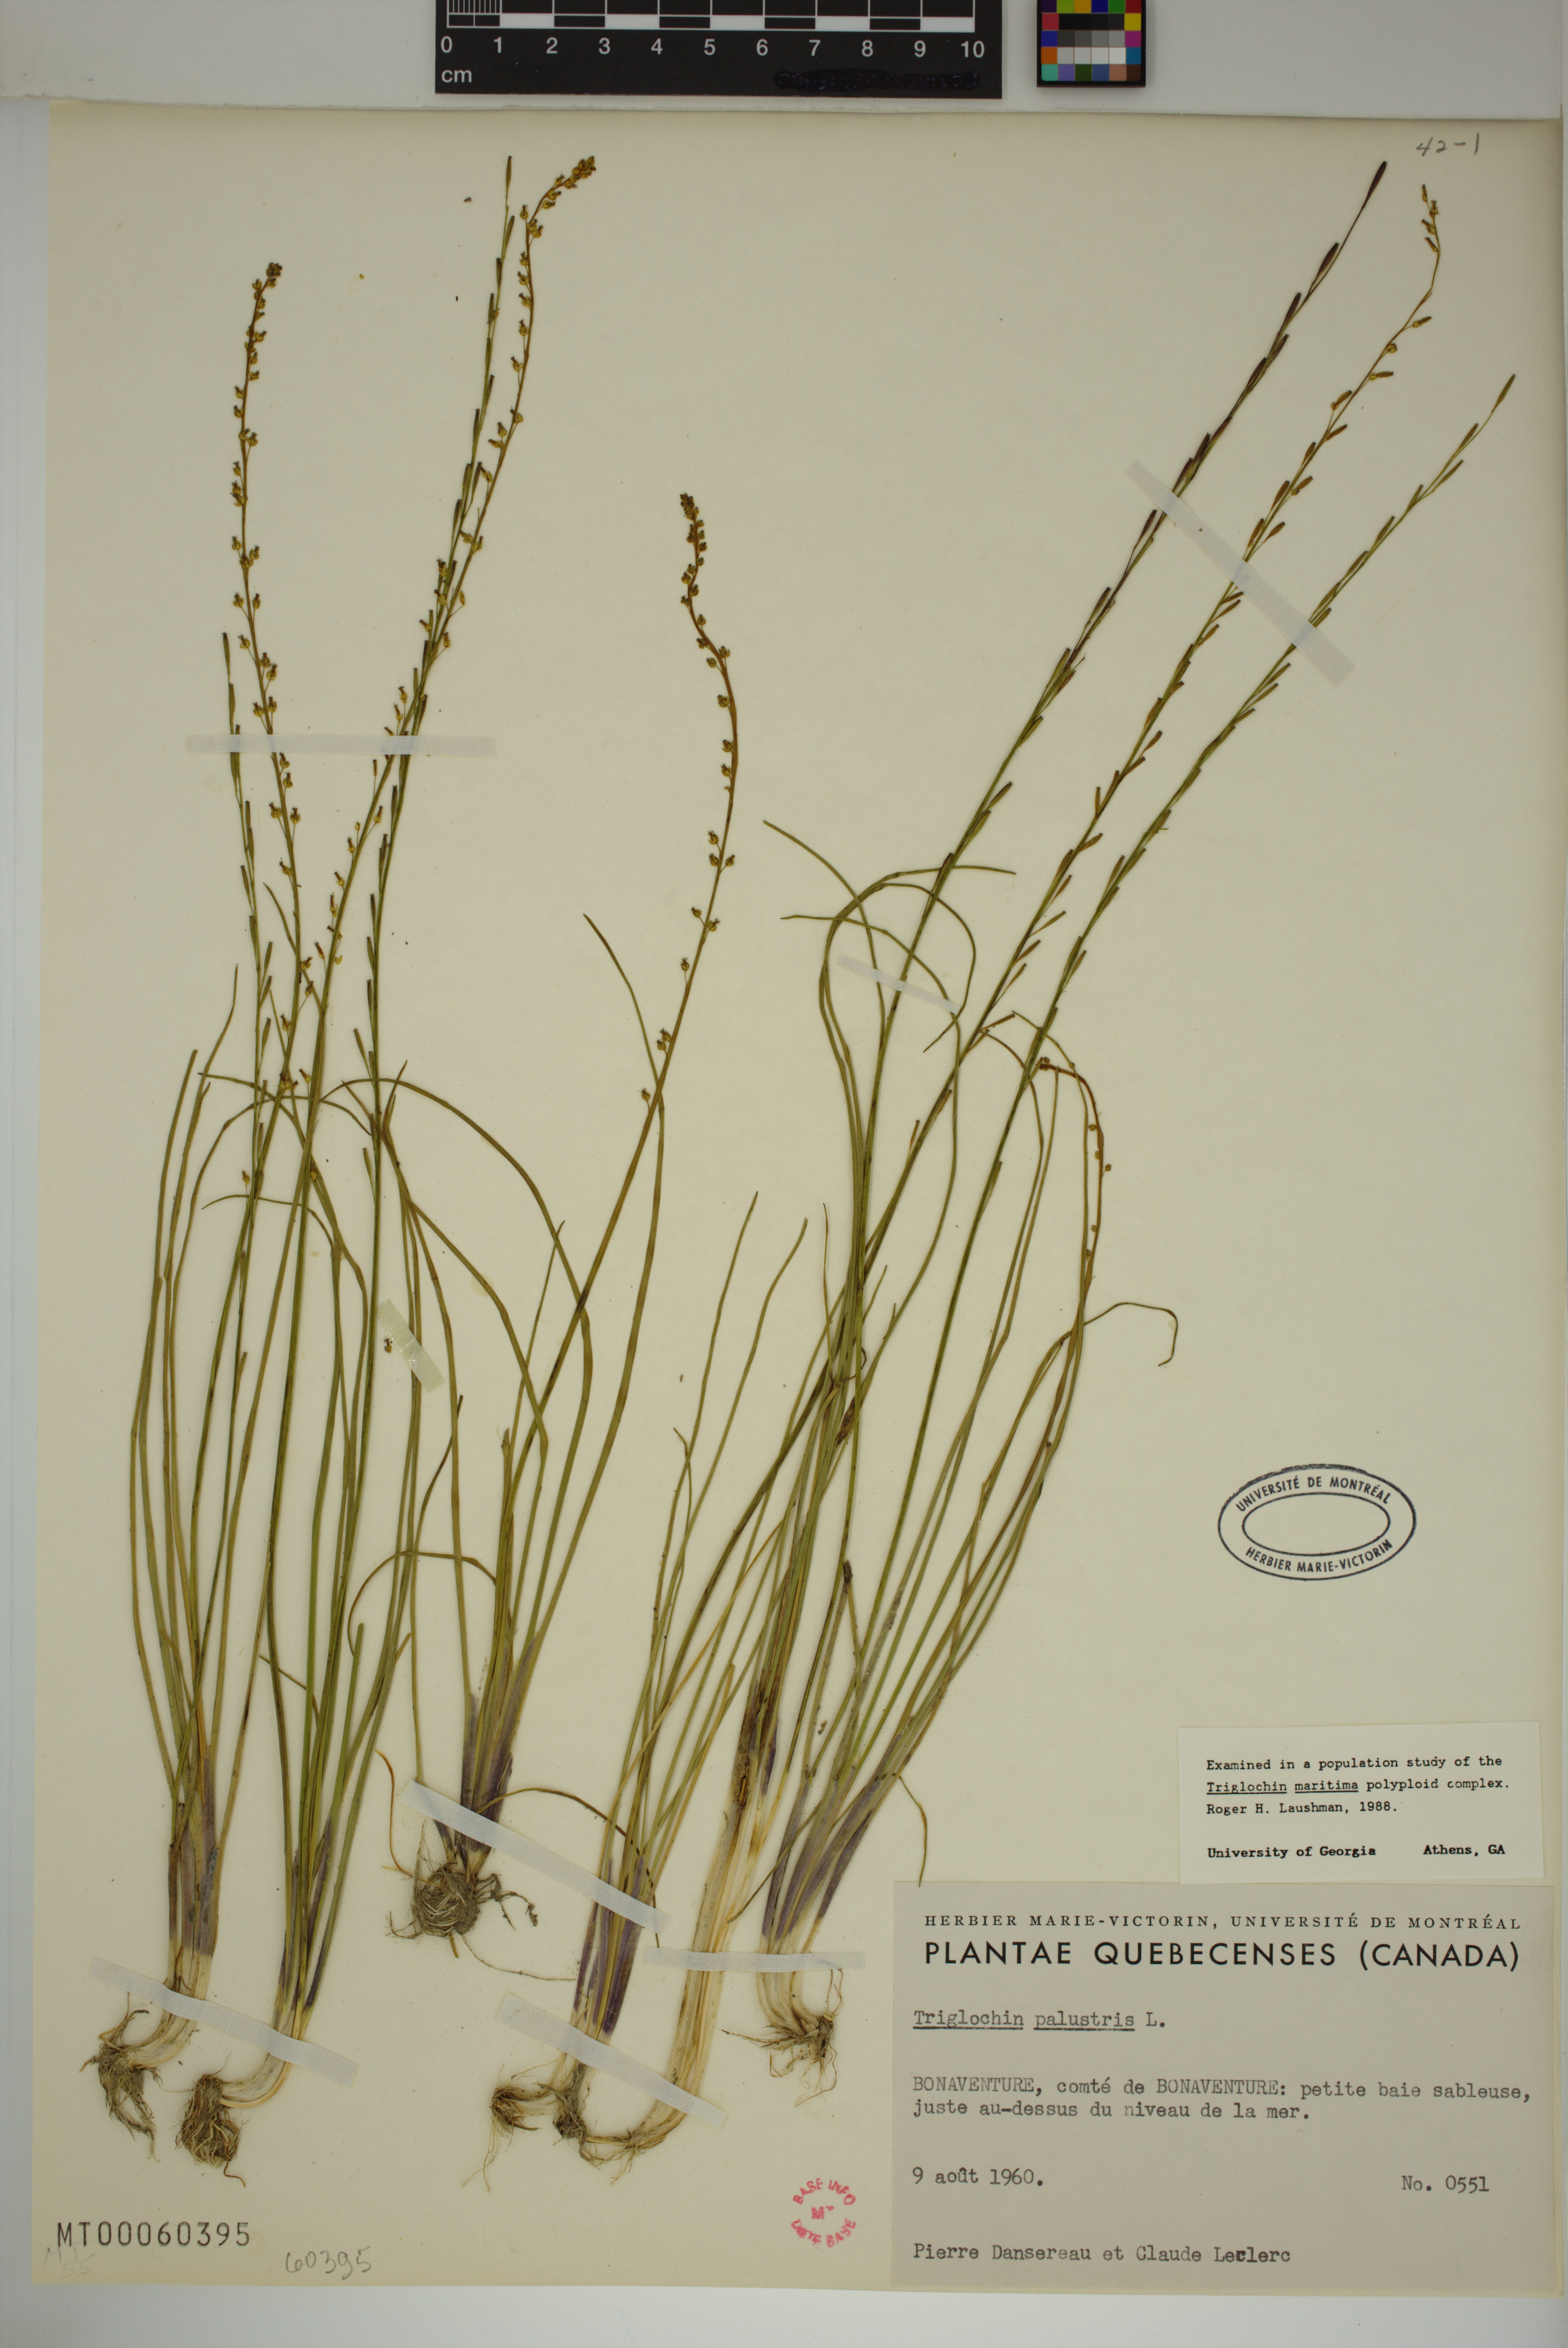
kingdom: Plantae
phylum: Tracheophyta
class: Liliopsida
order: Alismatales
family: Juncaginaceae
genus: Triglochin
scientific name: Triglochin palustris
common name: Marsh arrowgrass
